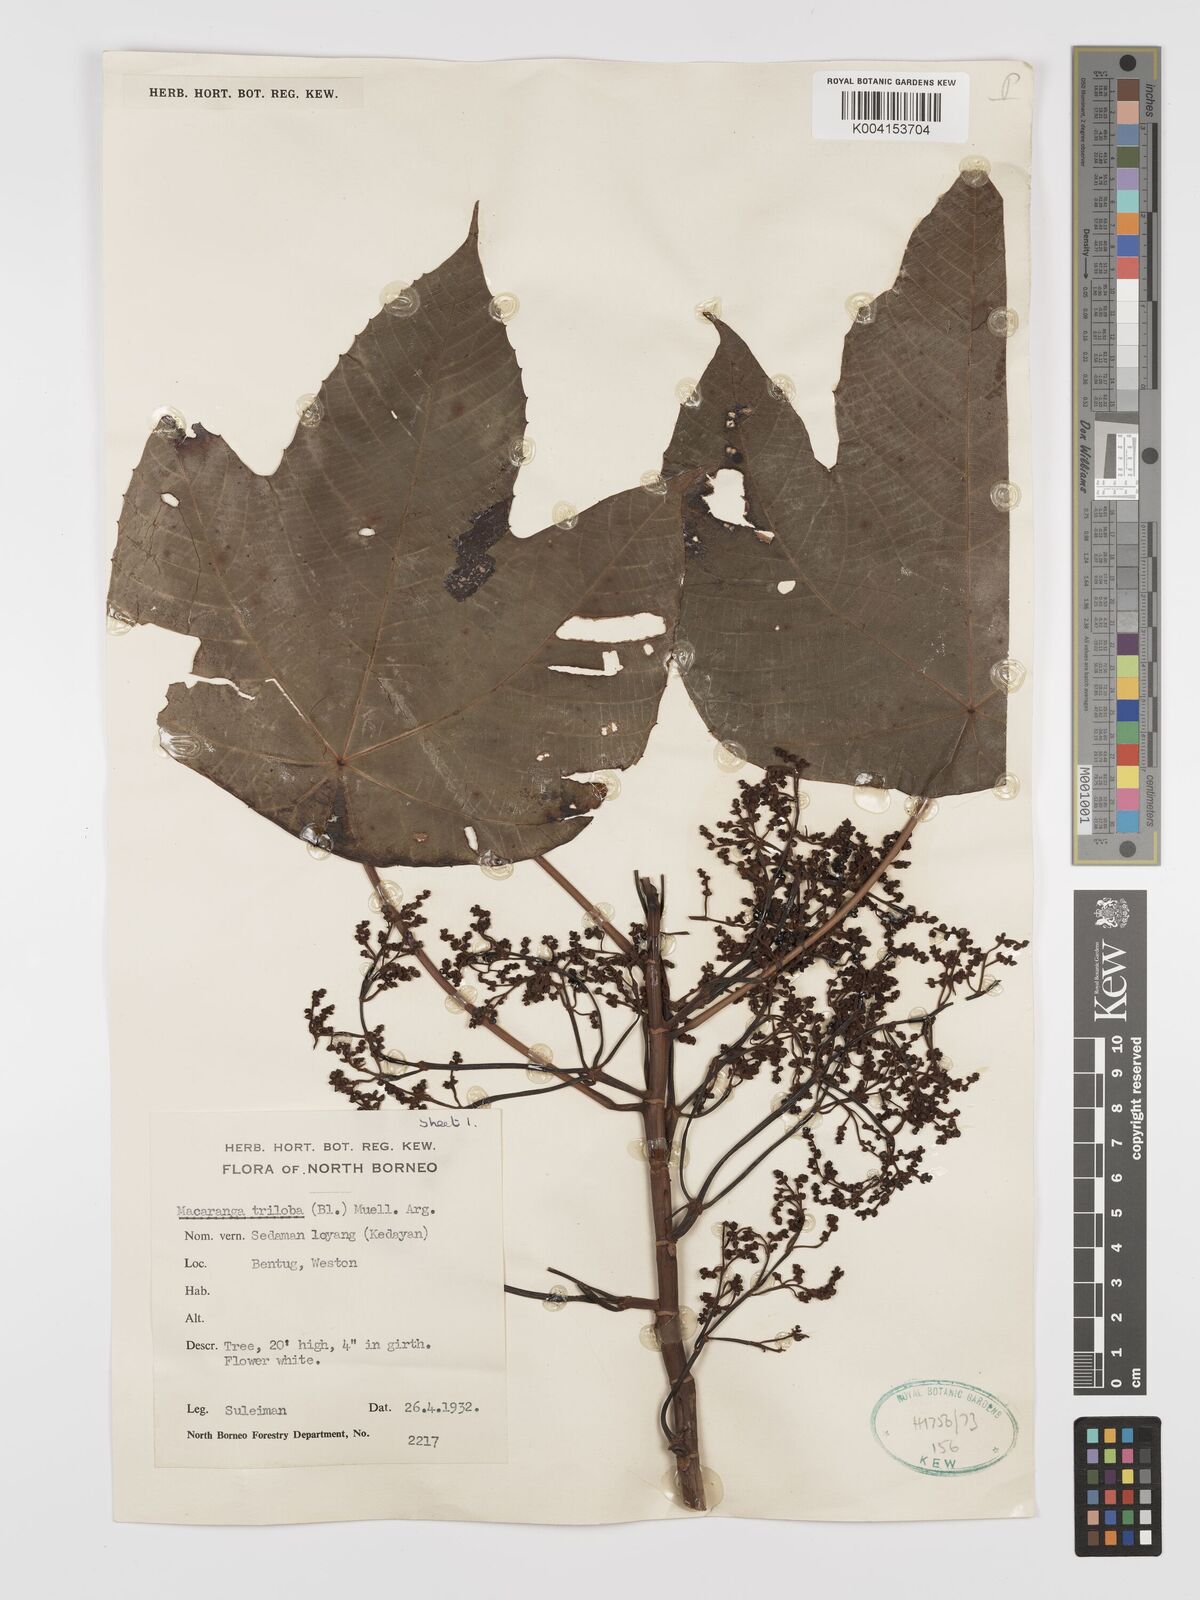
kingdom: Plantae
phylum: Tracheophyta
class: Magnoliopsida
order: Malpighiales
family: Euphorbiaceae
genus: Macaranga
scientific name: Macaranga triloba
